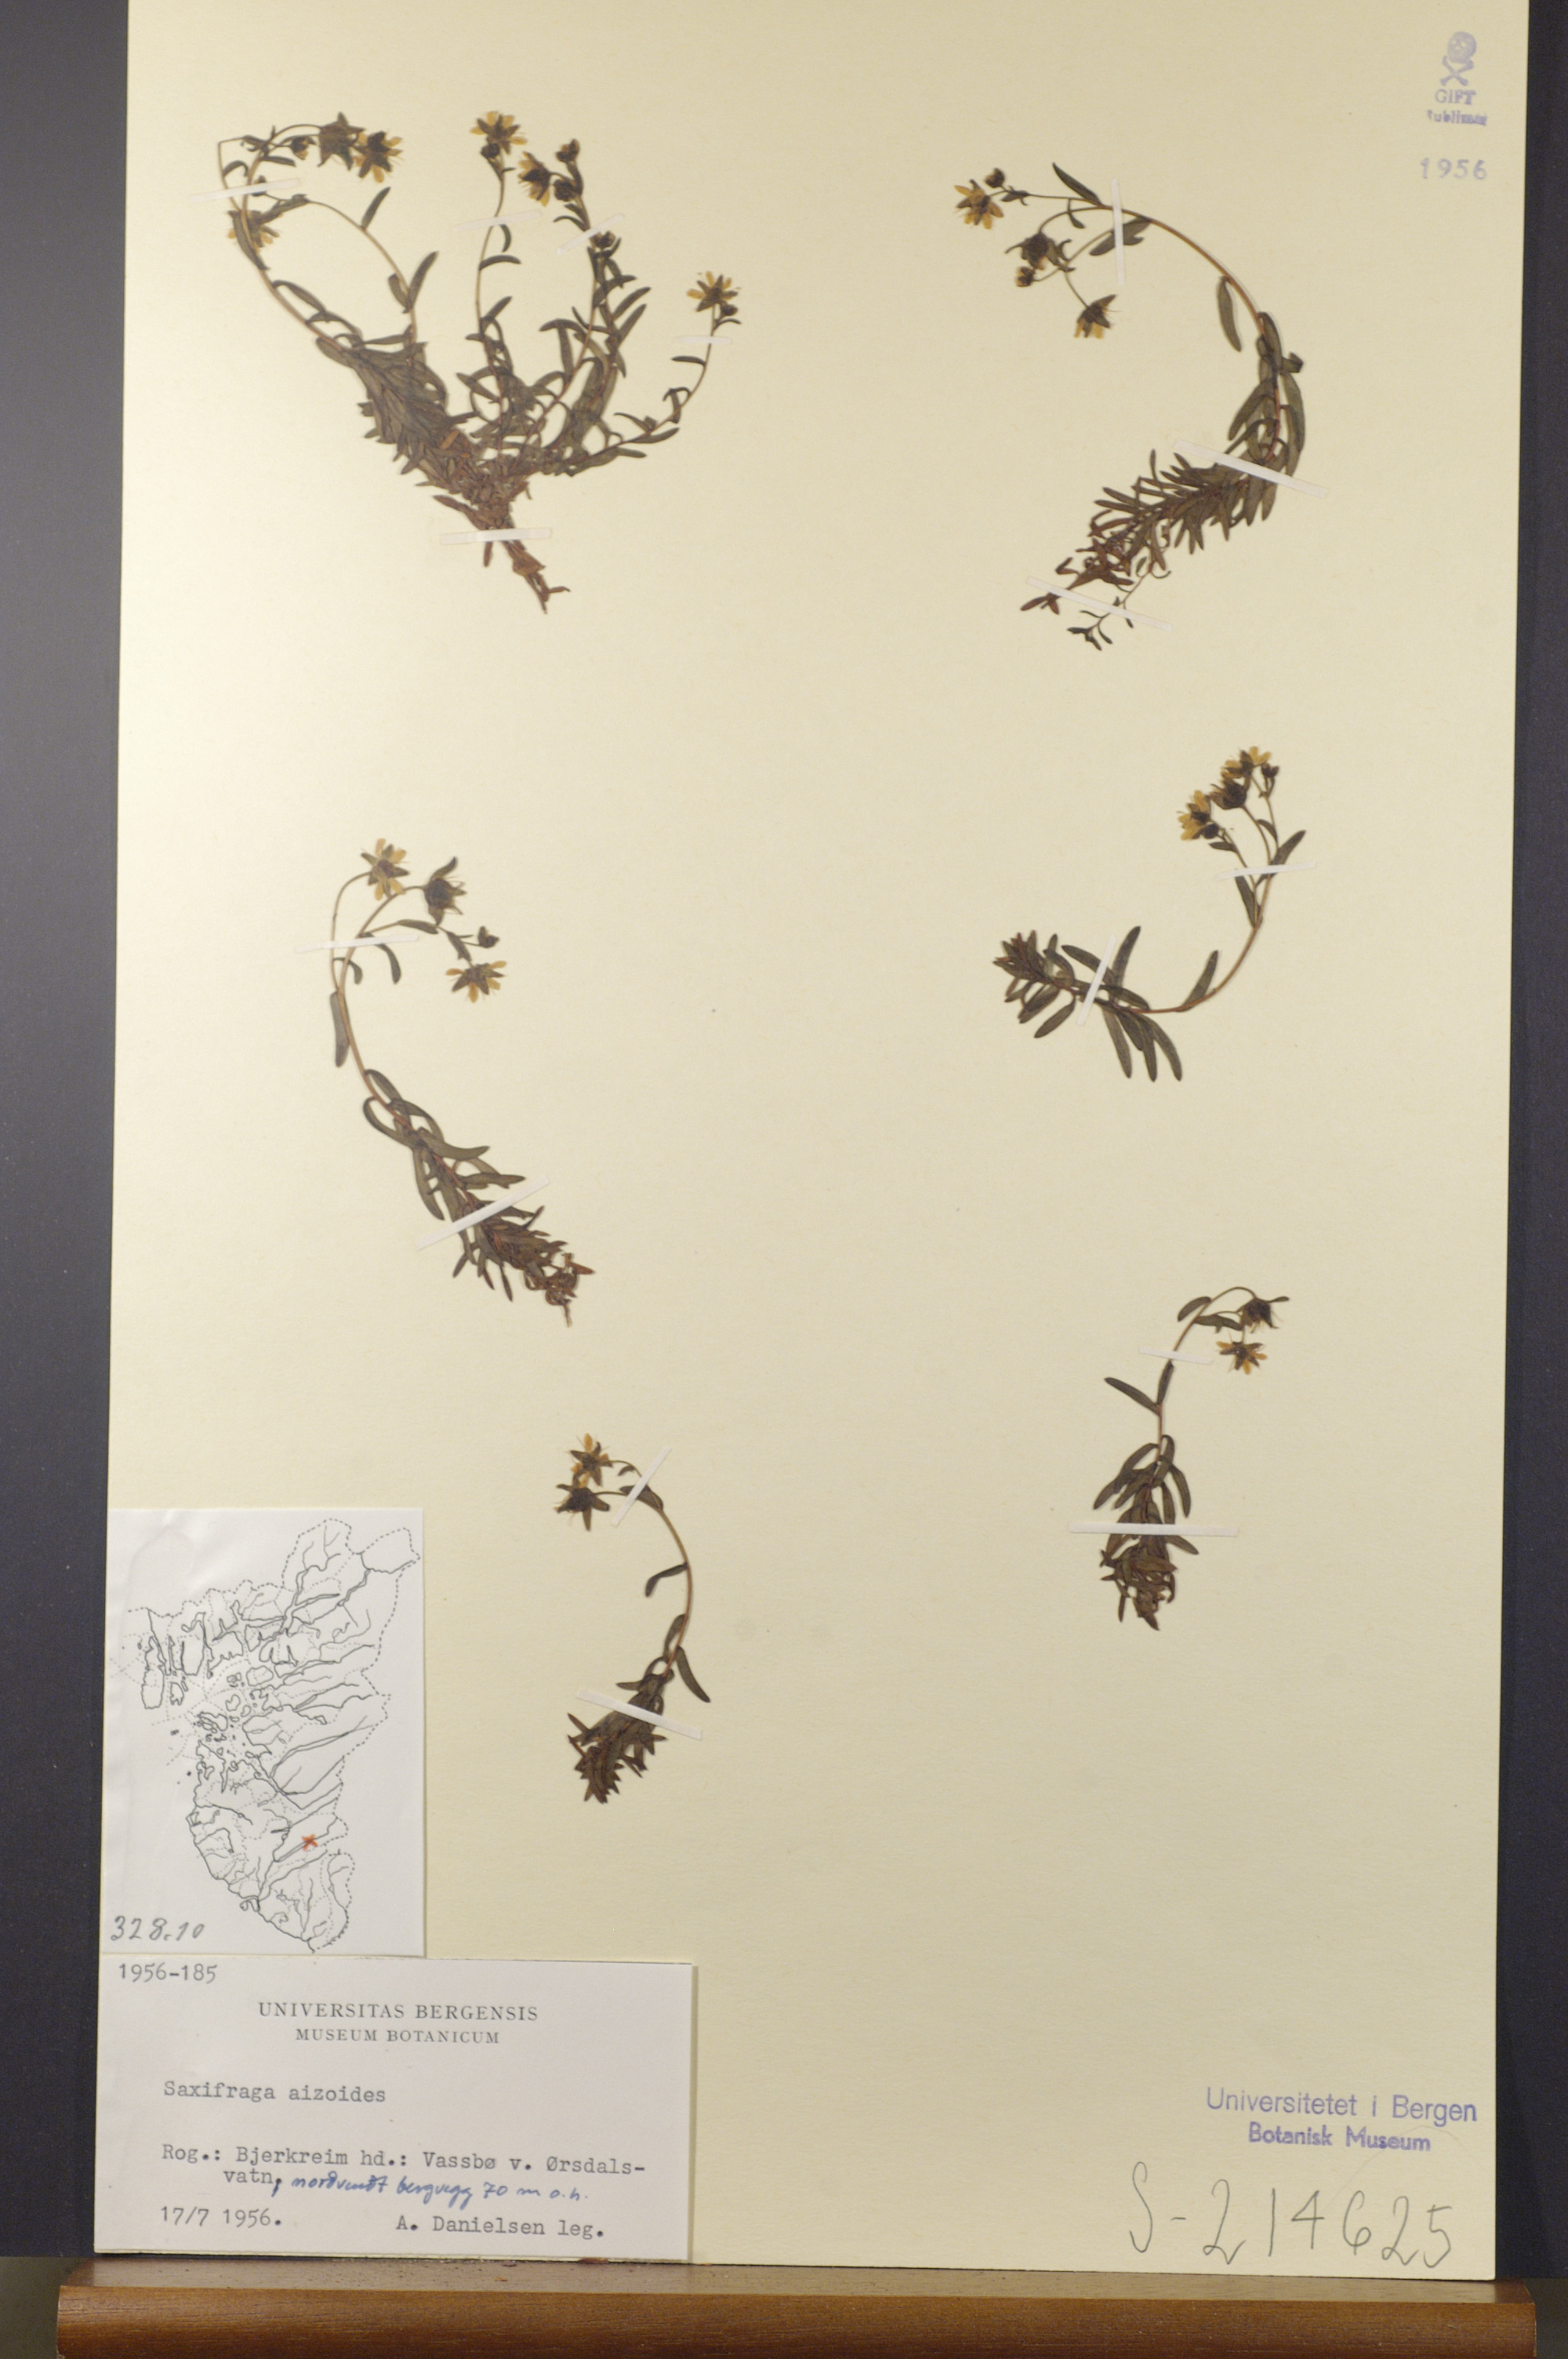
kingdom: Plantae
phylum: Tracheophyta
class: Magnoliopsida
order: Saxifragales
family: Saxifragaceae
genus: Saxifraga
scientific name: Saxifraga aizoides
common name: Yellow mountain saxifrage
